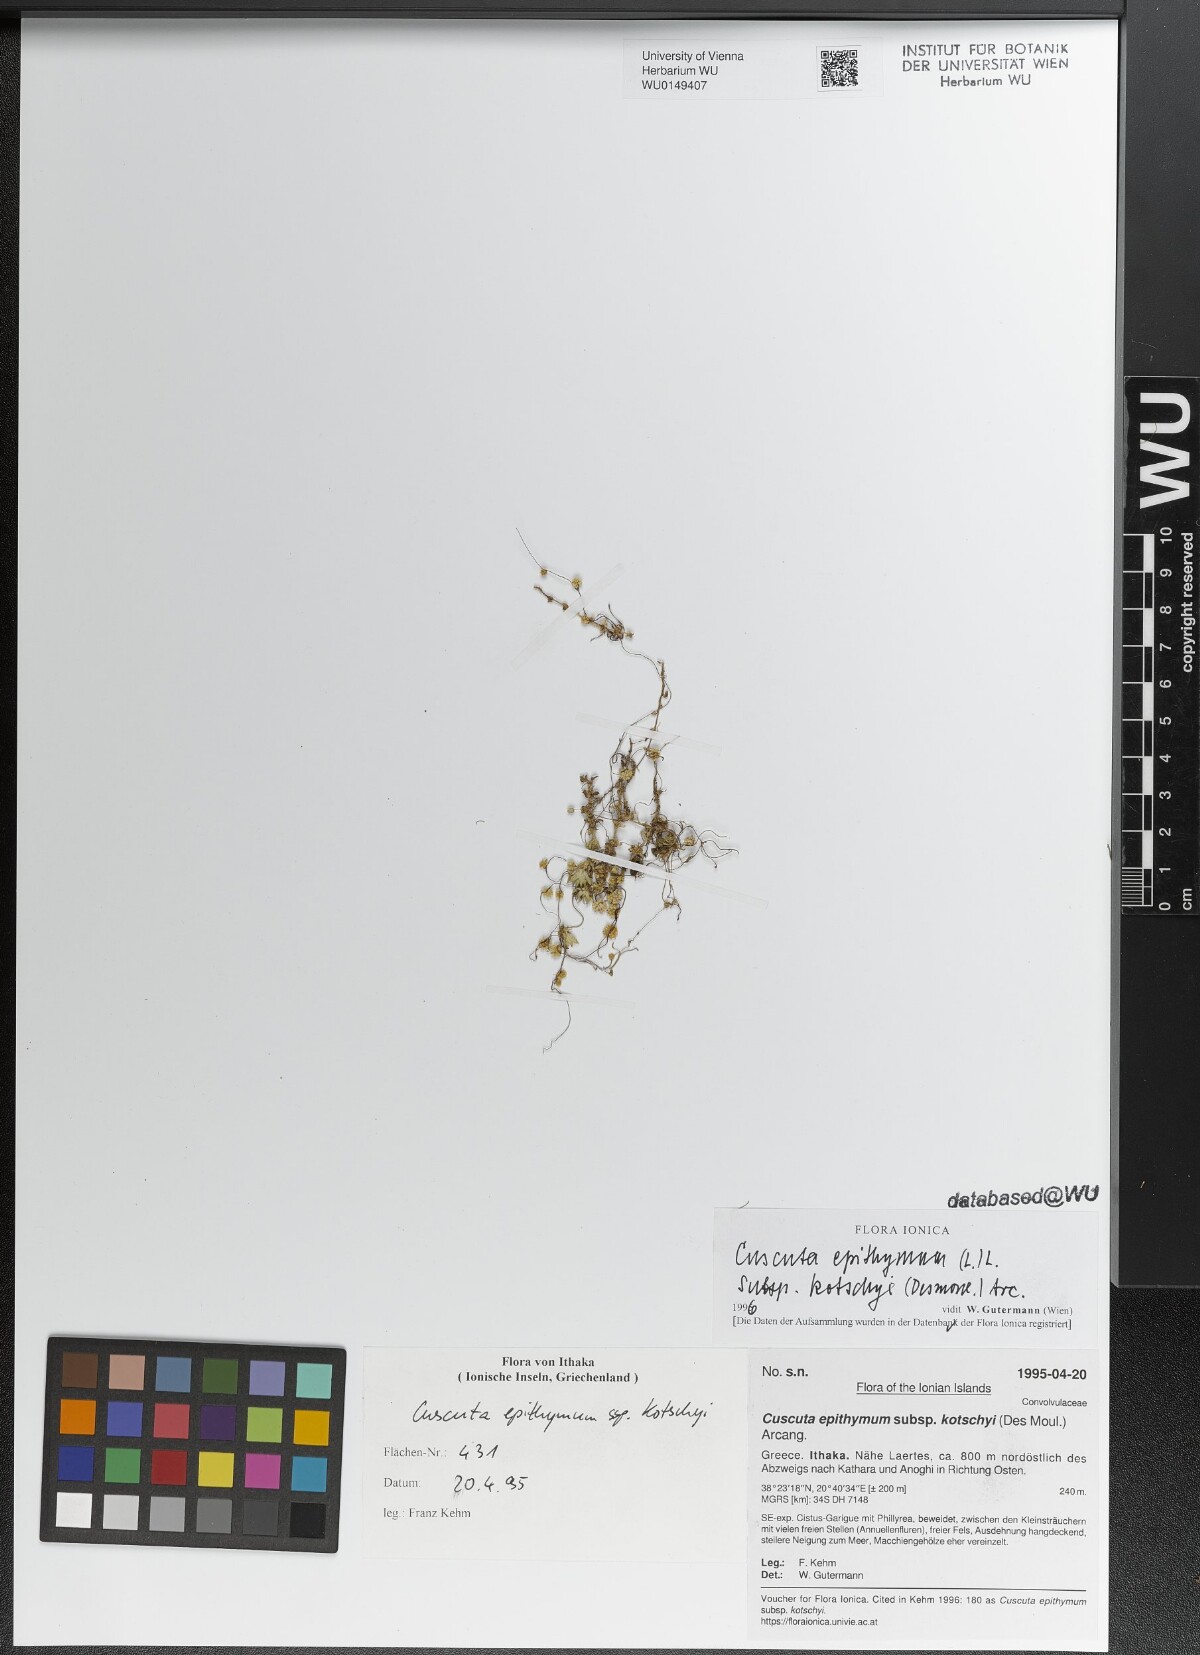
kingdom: Plantae
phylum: Tracheophyta
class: Magnoliopsida
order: Solanales
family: Convolvulaceae
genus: Cuscuta
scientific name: Cuscuta epithymum
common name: Clover dodder
